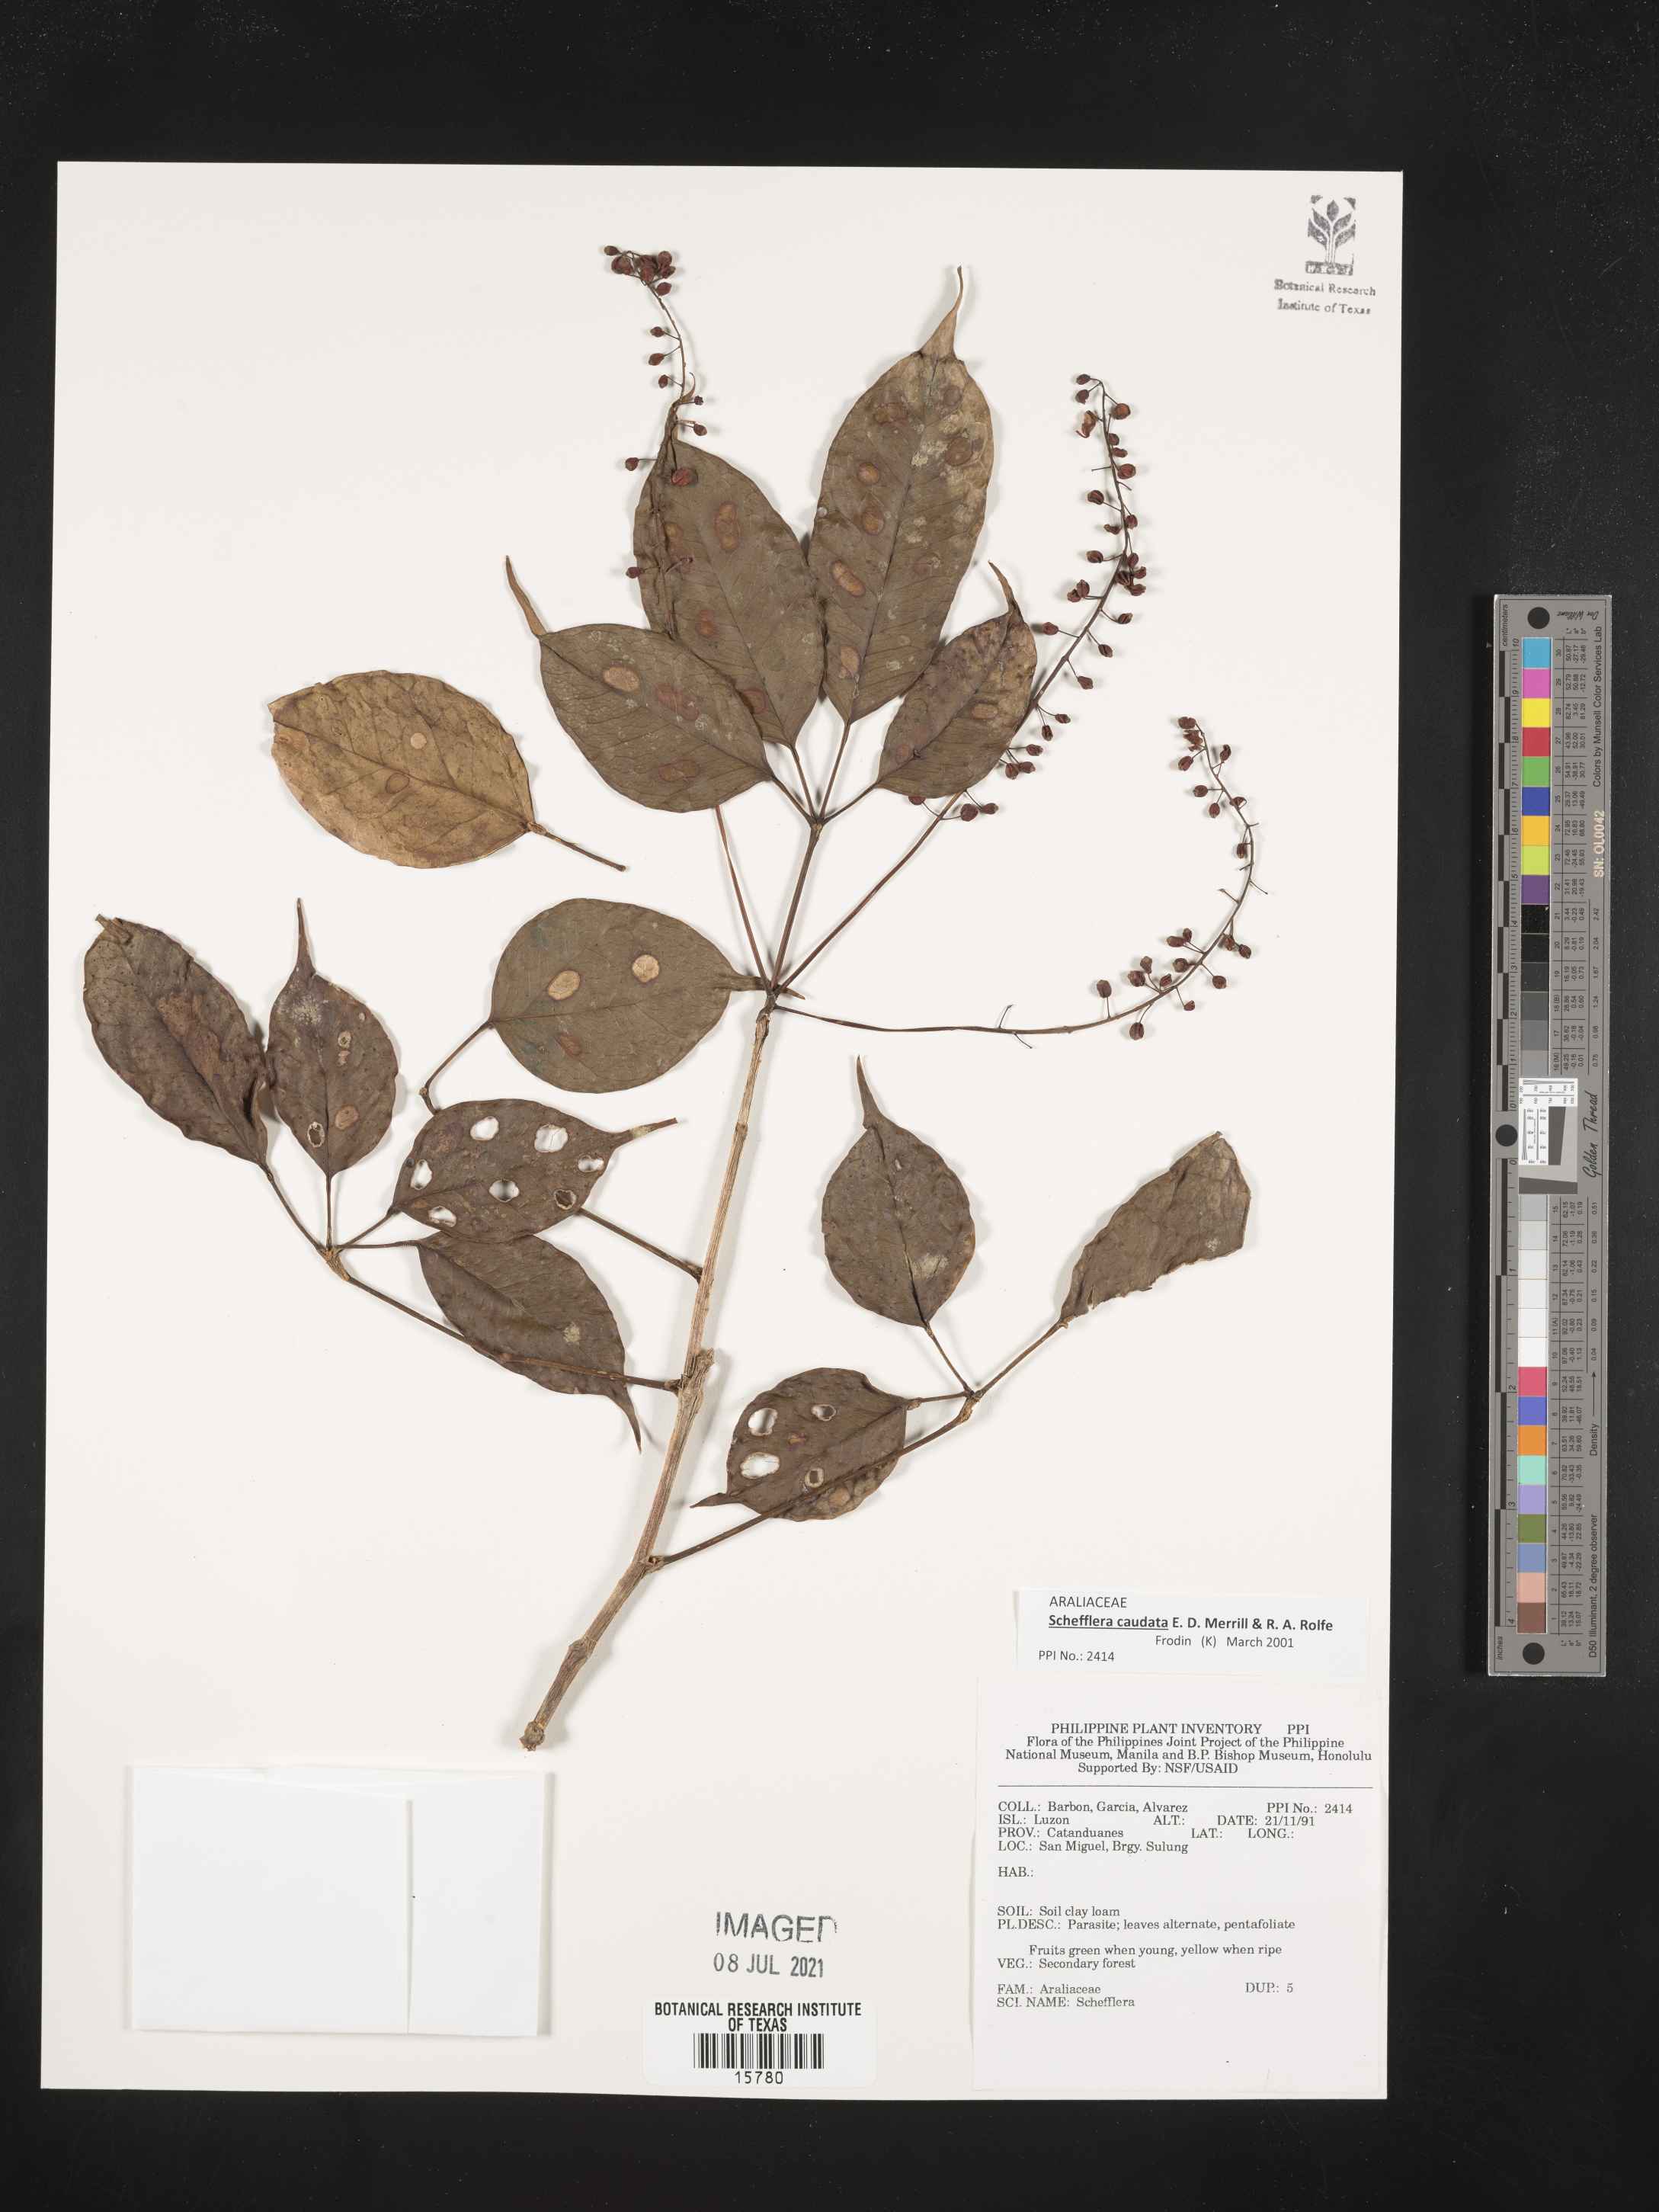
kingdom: Plantae
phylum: Tracheophyta
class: Magnoliopsida
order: Apiales
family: Araliaceae
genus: Schefflera
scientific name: Schefflera
